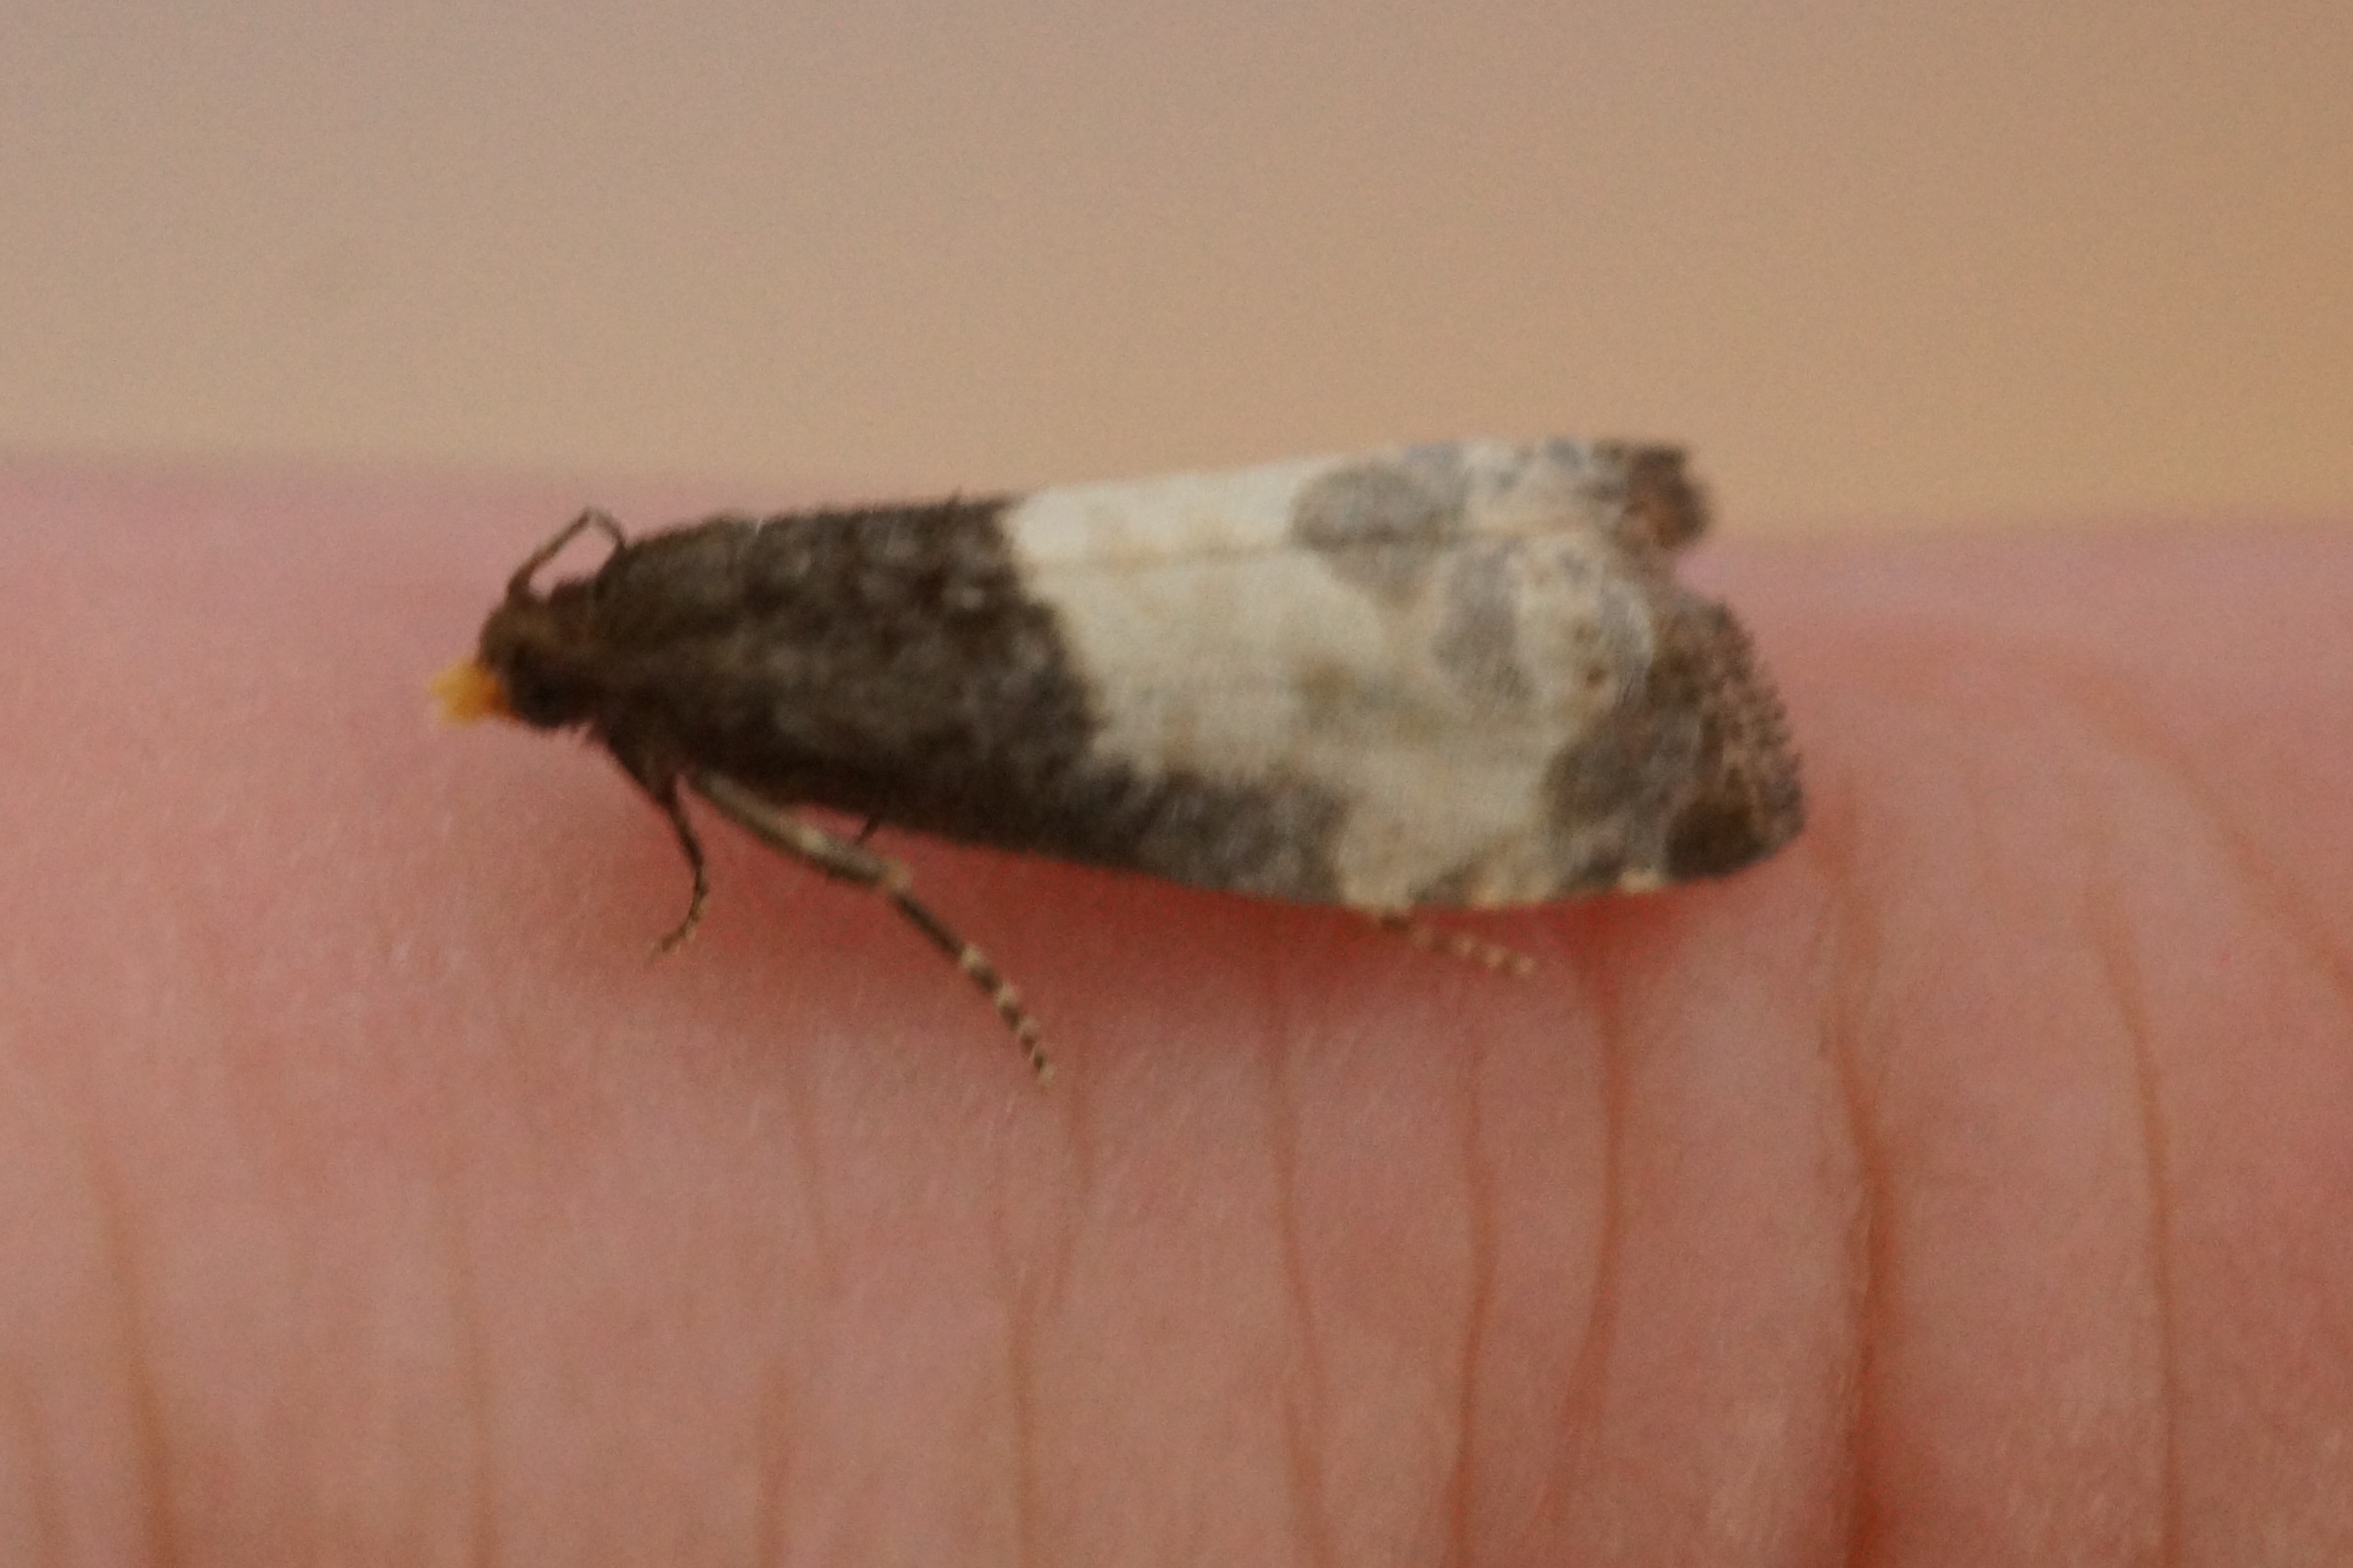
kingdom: Animalia
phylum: Arthropoda
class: Insecta
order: Lepidoptera
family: Tortricidae
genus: Notocelia
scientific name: Notocelia cynosbatella
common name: Stor rosenvikler
